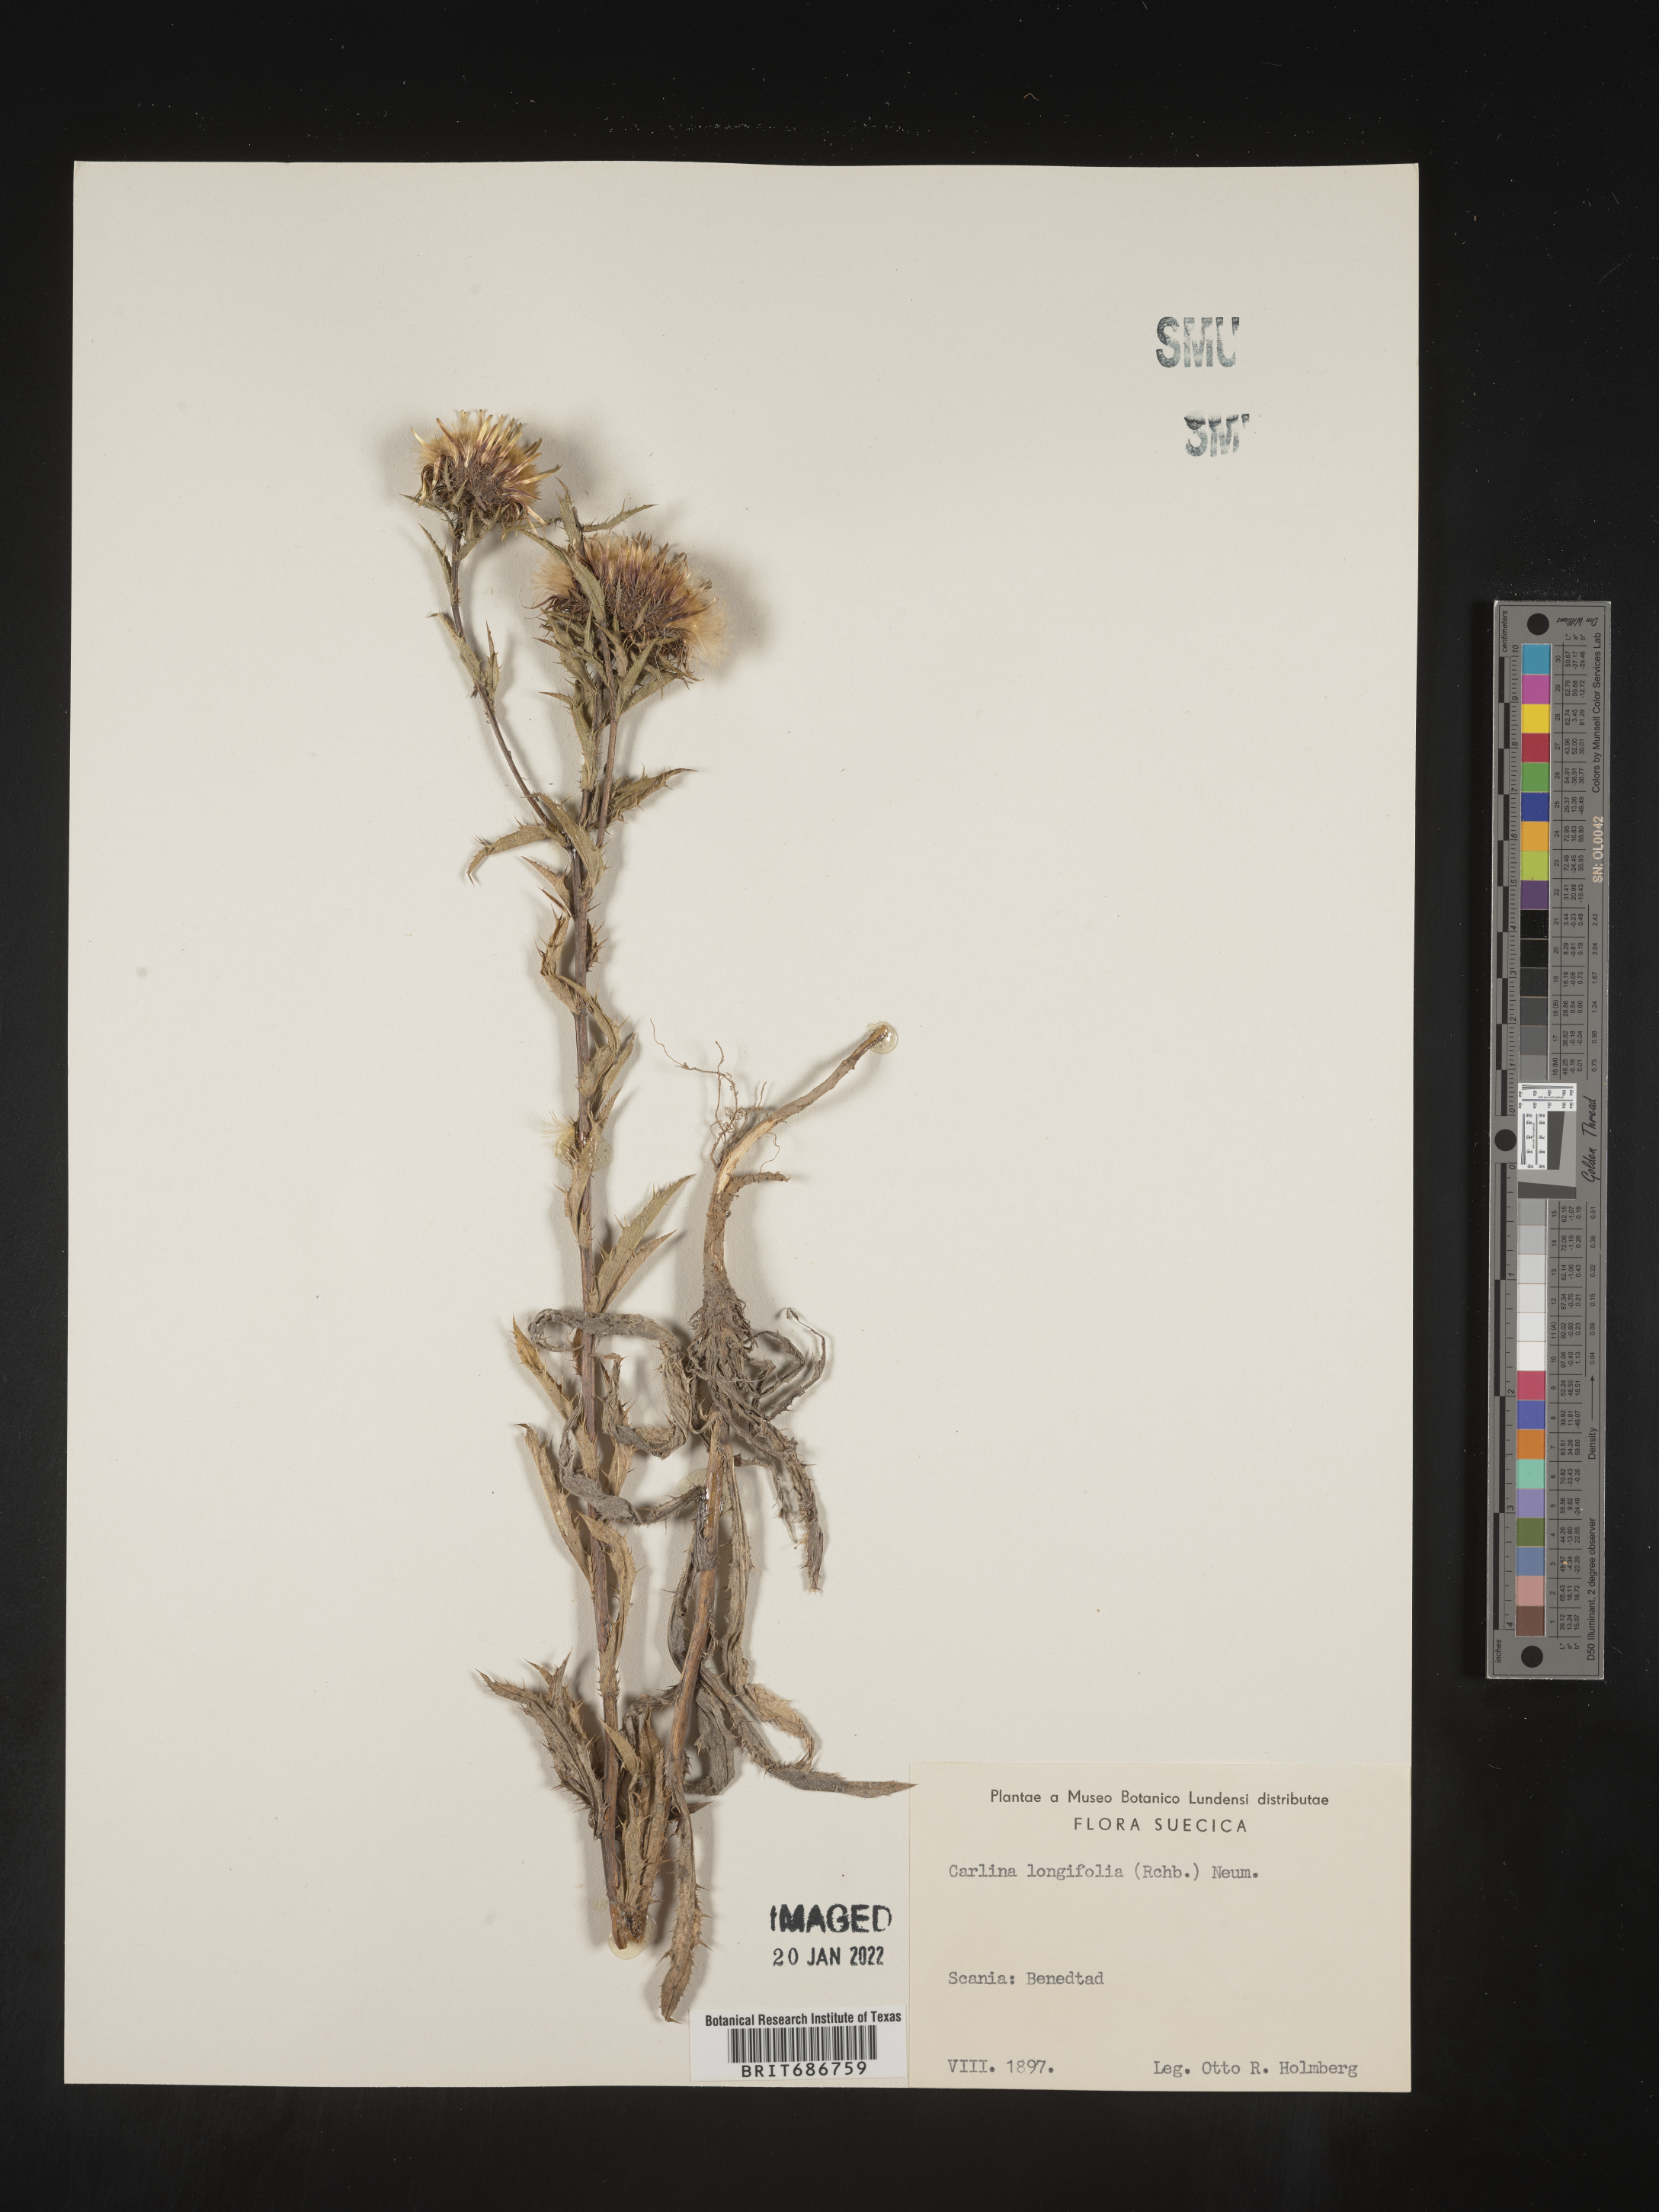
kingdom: Plantae
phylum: Tracheophyta
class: Magnoliopsida
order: Asterales
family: Asteraceae
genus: Carlina
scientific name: Carlina
